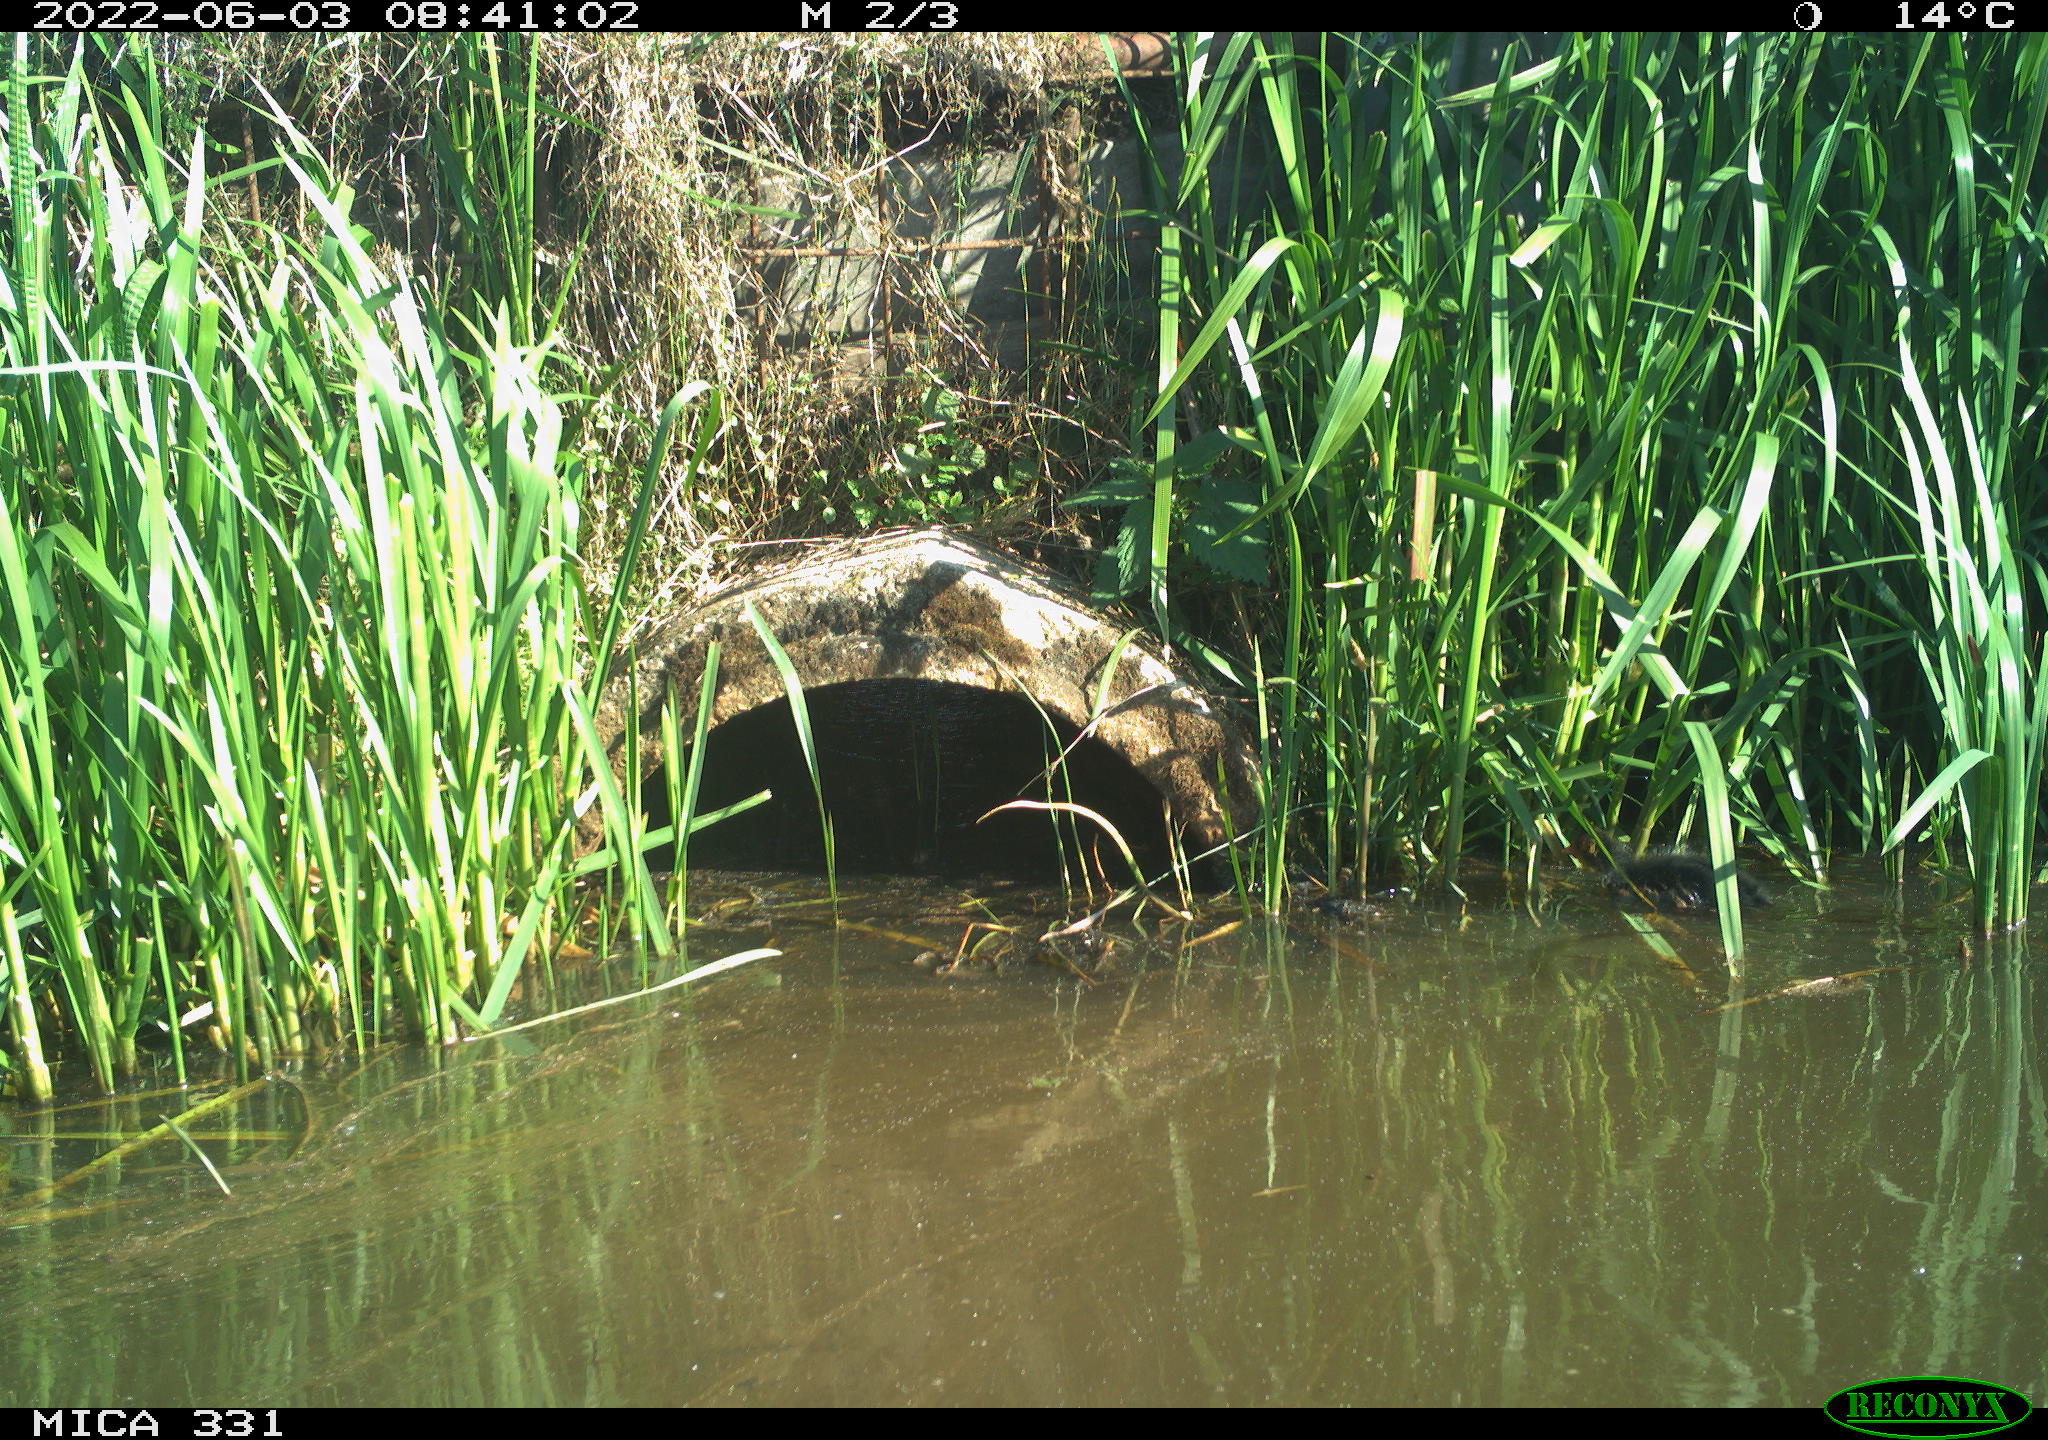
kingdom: Animalia
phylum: Chordata
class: Aves
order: Gruiformes
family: Rallidae
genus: Fulica
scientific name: Fulica atra
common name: Eurasian coot
